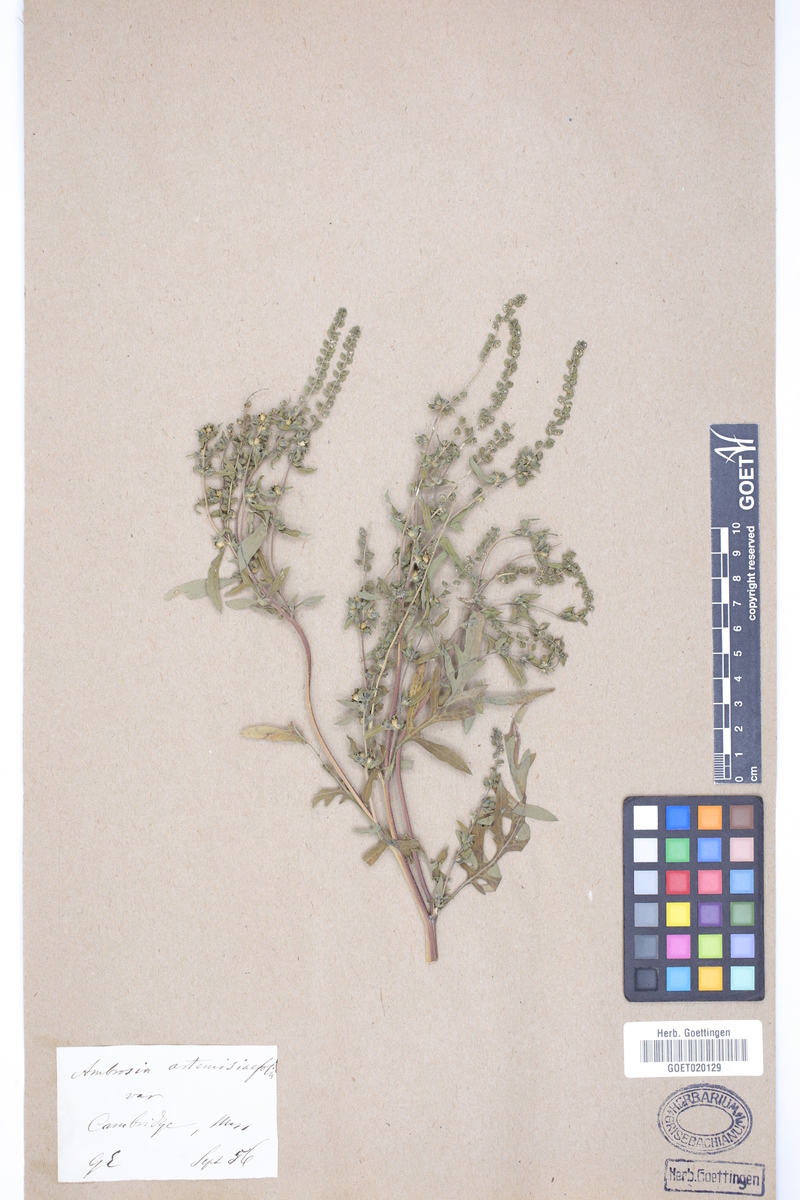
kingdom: Plantae
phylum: Tracheophyta
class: Magnoliopsida
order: Asterales
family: Asteraceae
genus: Ambrosia
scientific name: Ambrosia artemisiifolia
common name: Annual ragweed
